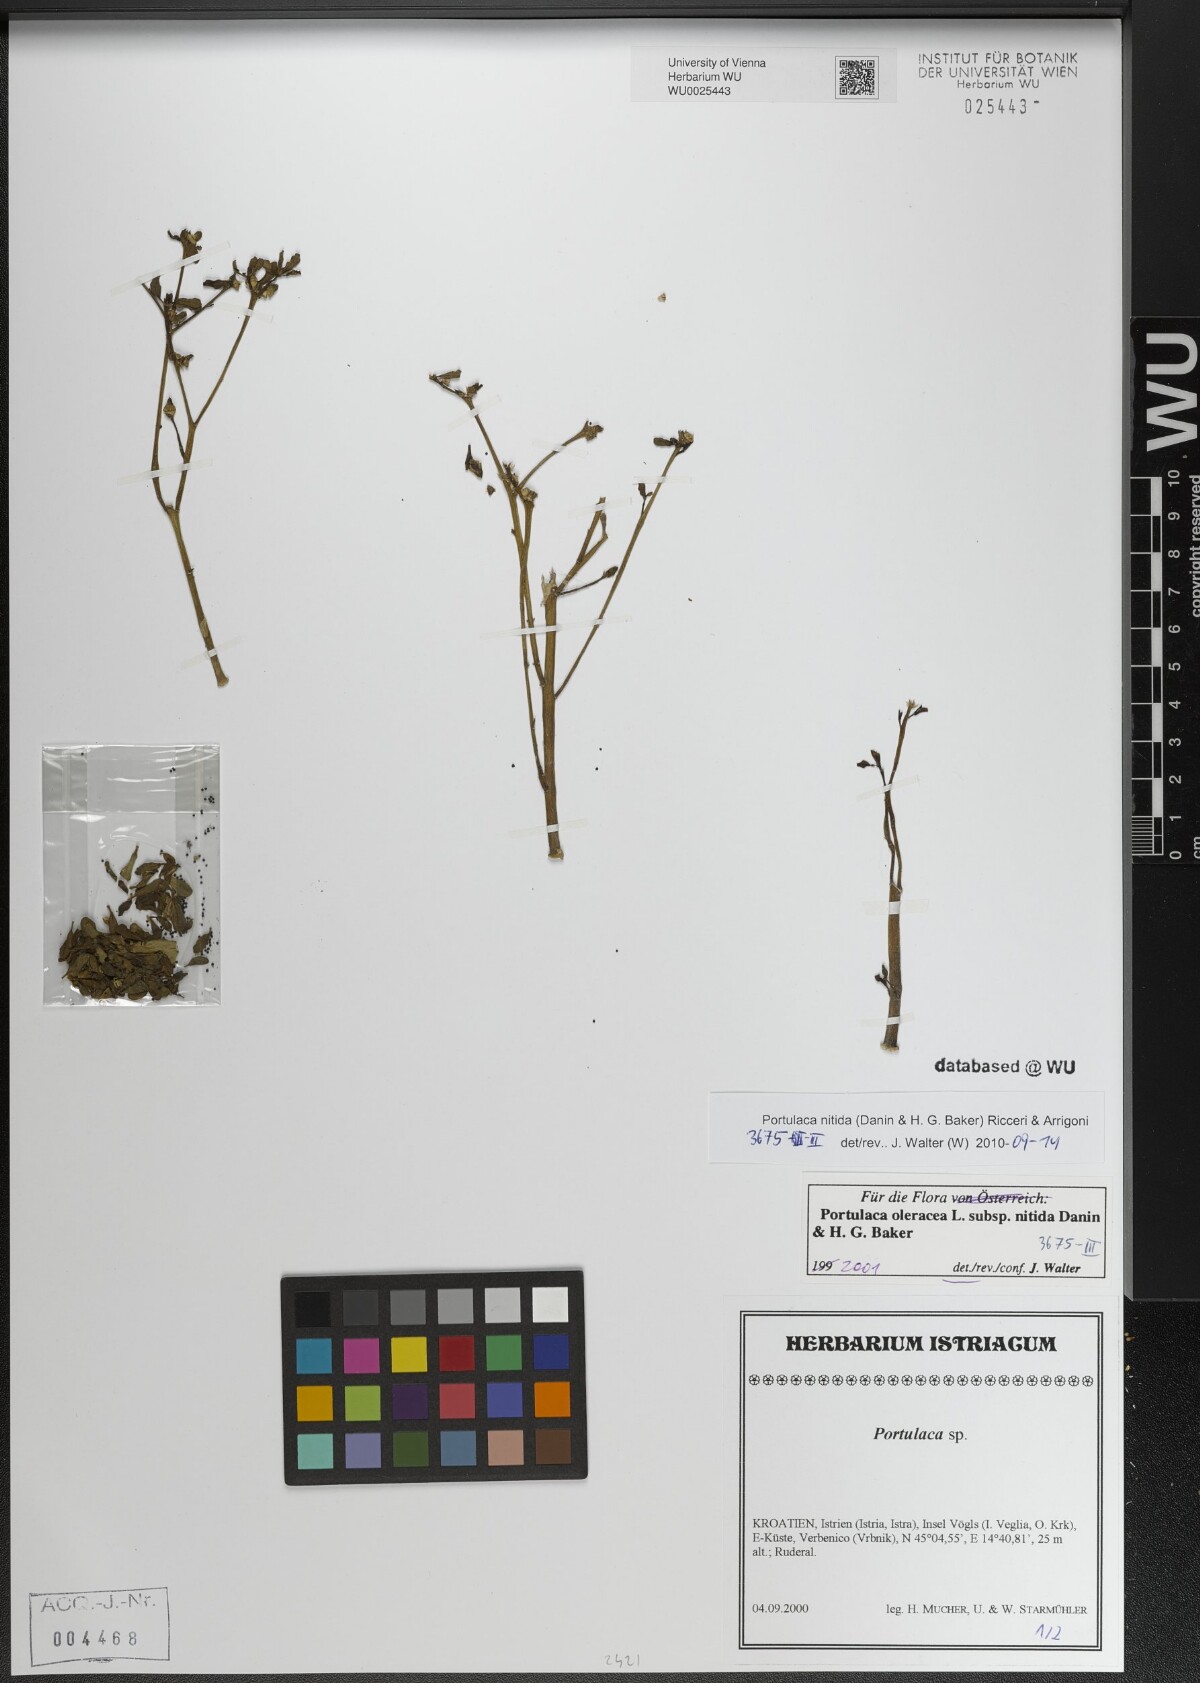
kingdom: Plantae
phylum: Tracheophyta
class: Magnoliopsida
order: Caryophyllales
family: Portulacaceae
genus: Portulaca
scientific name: Portulaca nitida
